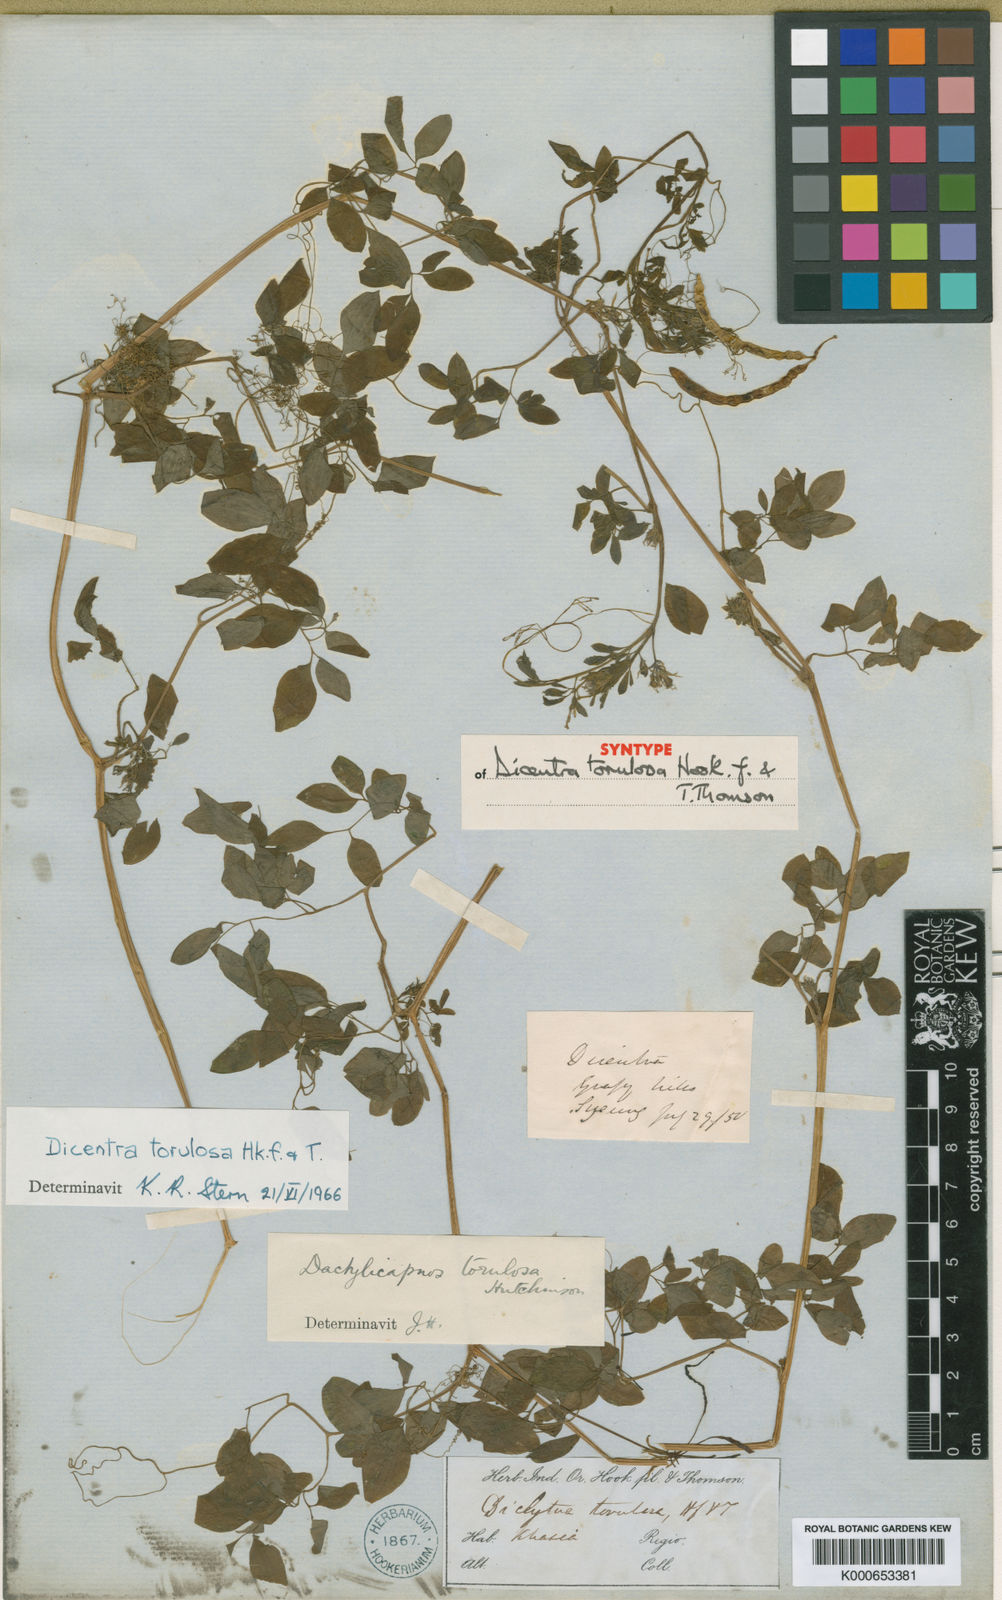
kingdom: Plantae
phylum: Tracheophyta
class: Magnoliopsida
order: Ranunculales
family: Papaveraceae
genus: Dactylicapnos
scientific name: Dactylicapnos torulosa
